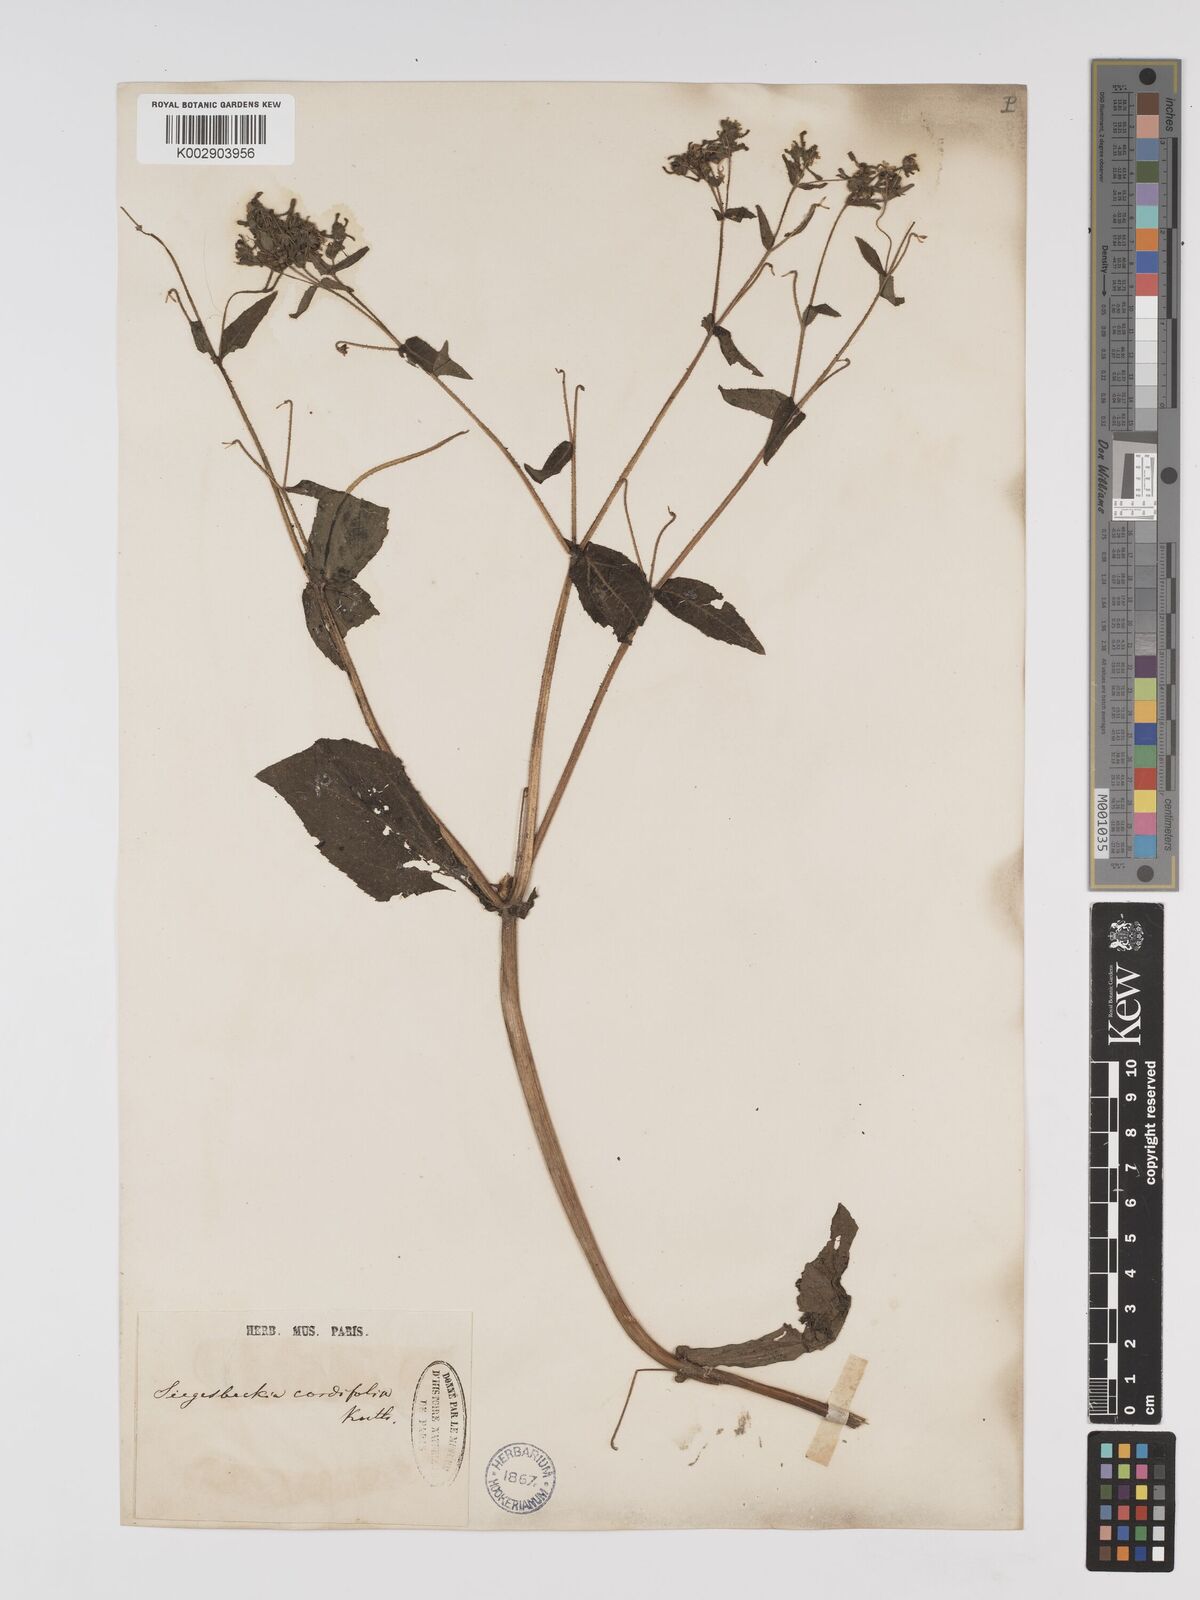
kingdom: Plantae
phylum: Tracheophyta
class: Magnoliopsida
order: Asterales
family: Asteraceae
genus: Sigesbeckia
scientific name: Sigesbeckia jorullensis
